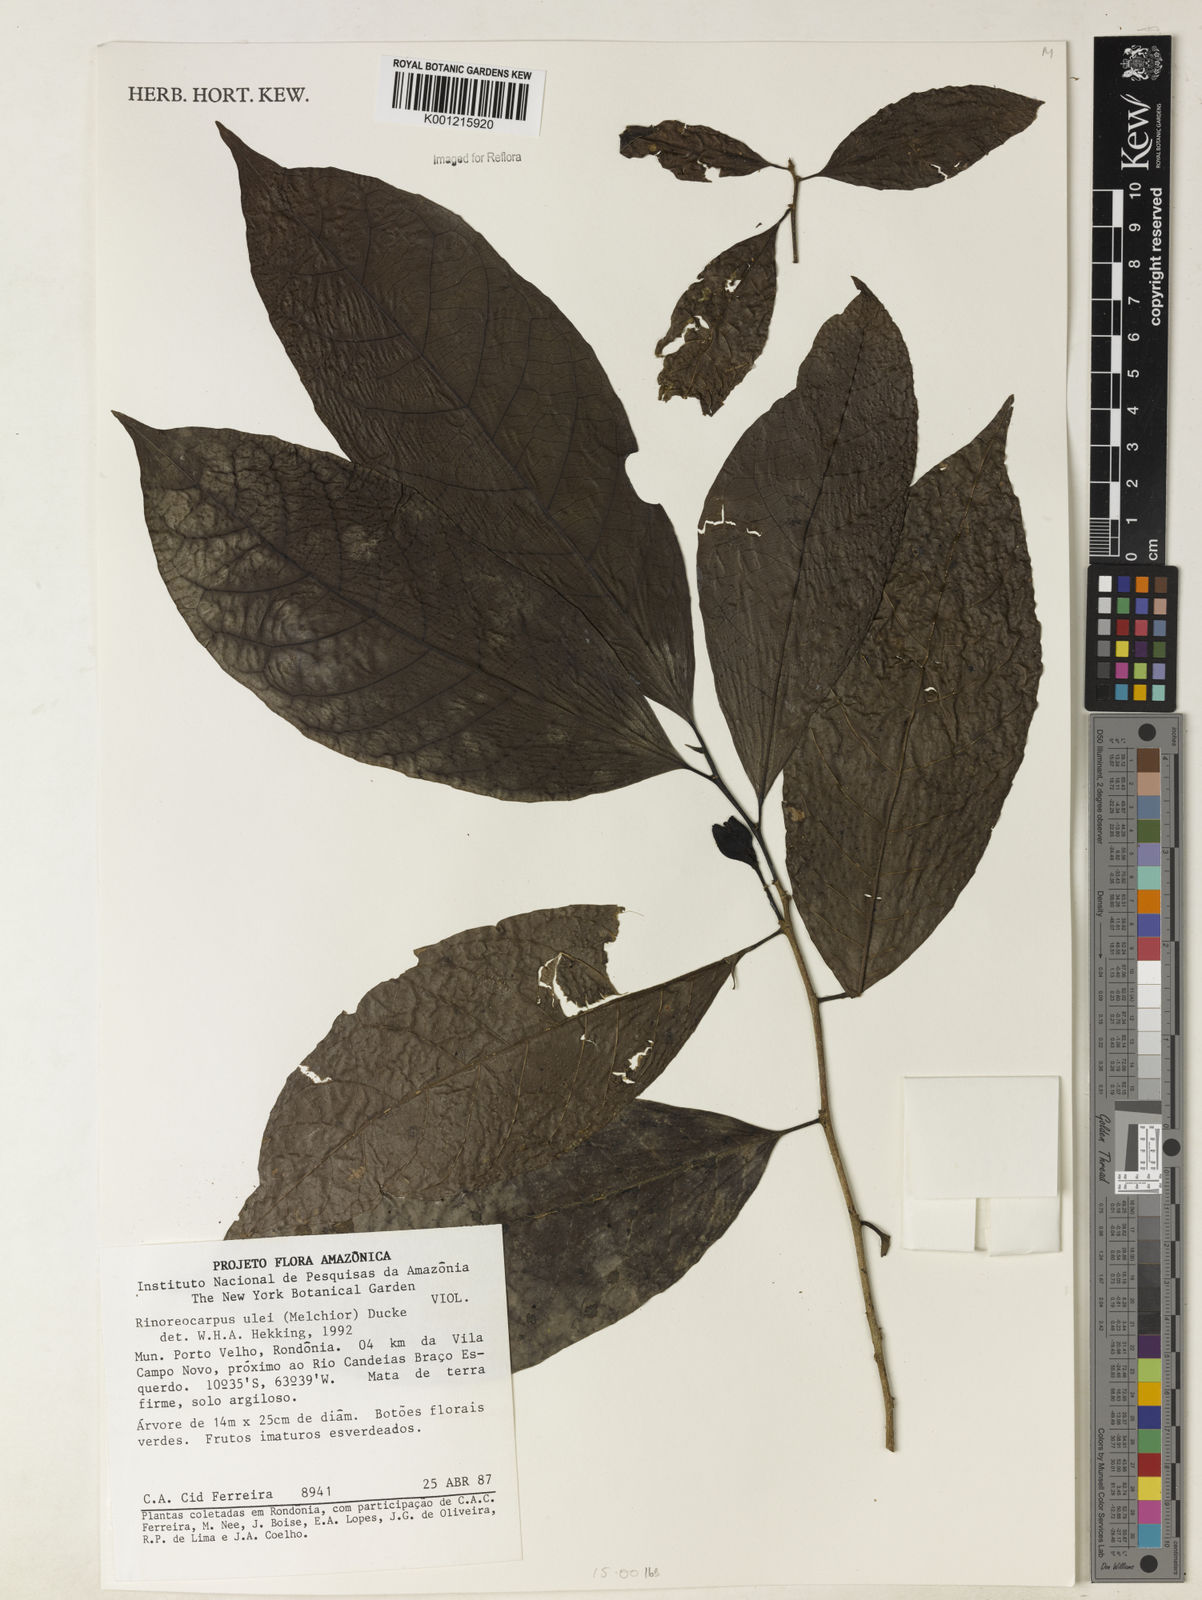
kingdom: Plantae
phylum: Tracheophyta
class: Magnoliopsida
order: Malpighiales
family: Violaceae
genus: Rinorea
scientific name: Rinorea
